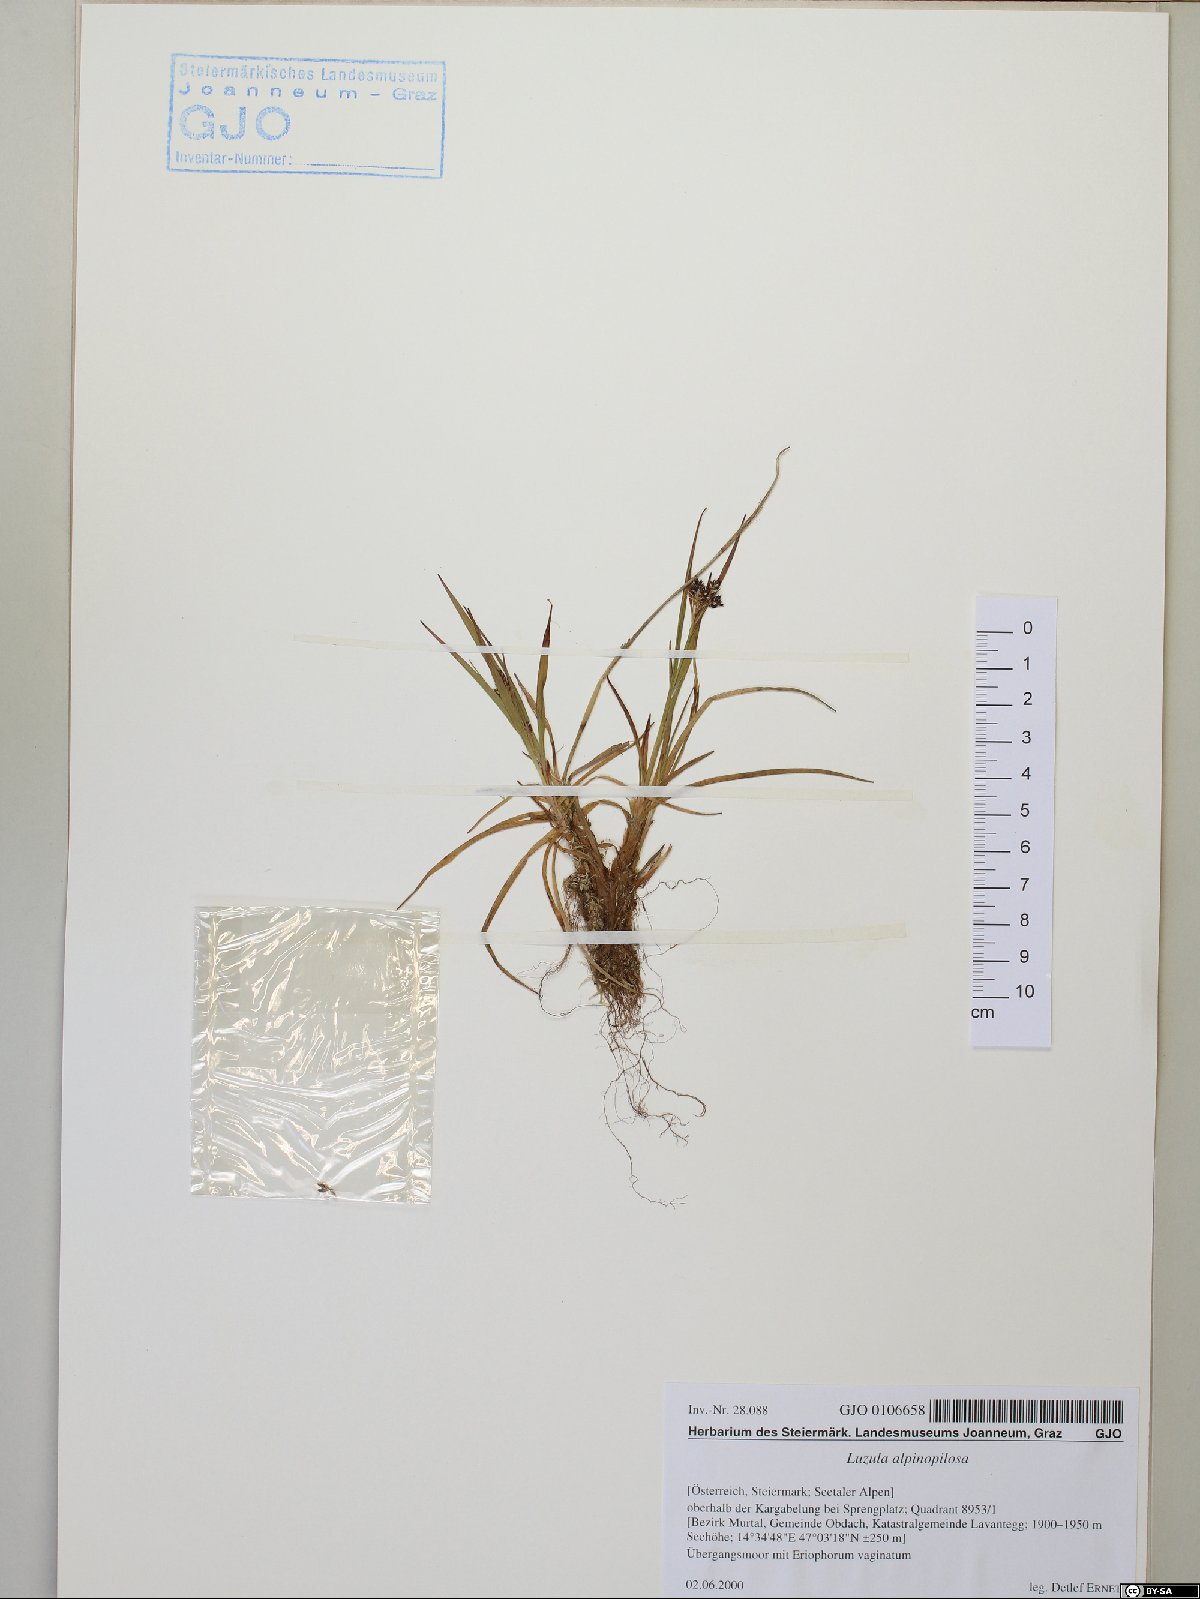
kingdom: Plantae
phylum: Tracheophyta
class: Liliopsida
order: Poales
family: Juncaceae
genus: Luzula
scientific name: Luzula alpinopilosa
